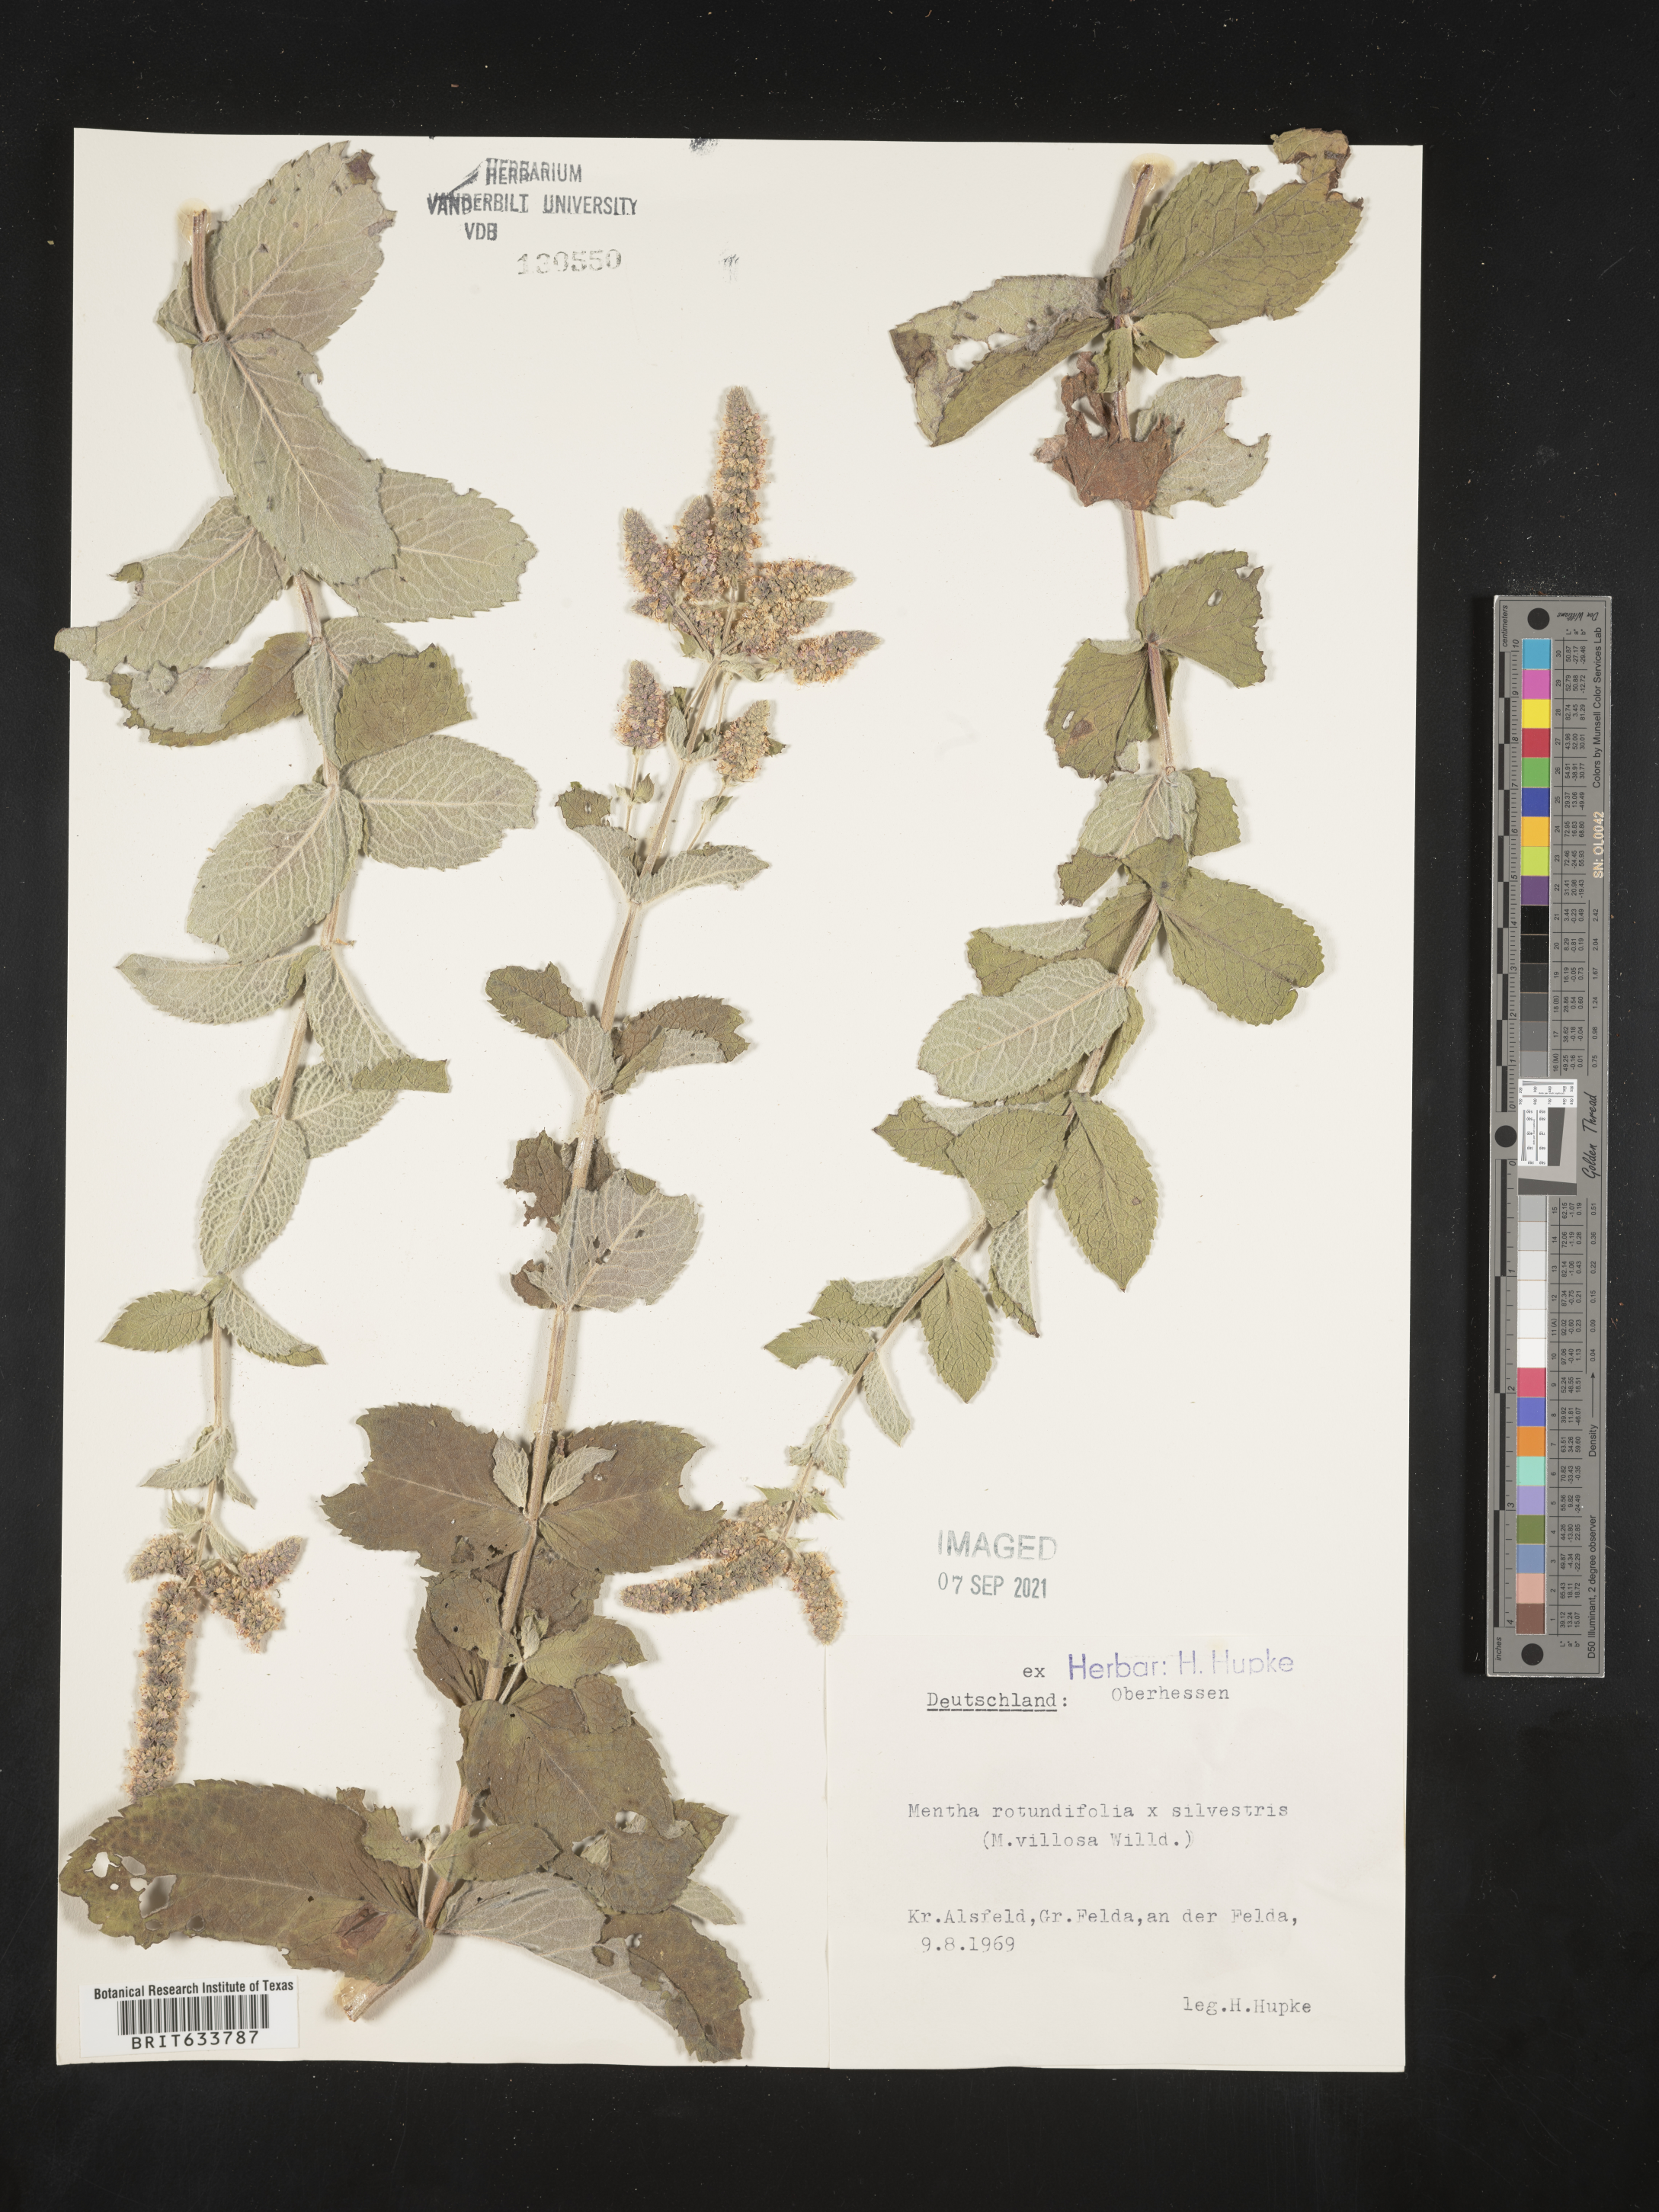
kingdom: Plantae
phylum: Tracheophyta
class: Magnoliopsida
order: Lamiales
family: Lamiaceae
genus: Mentha
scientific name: Mentha
